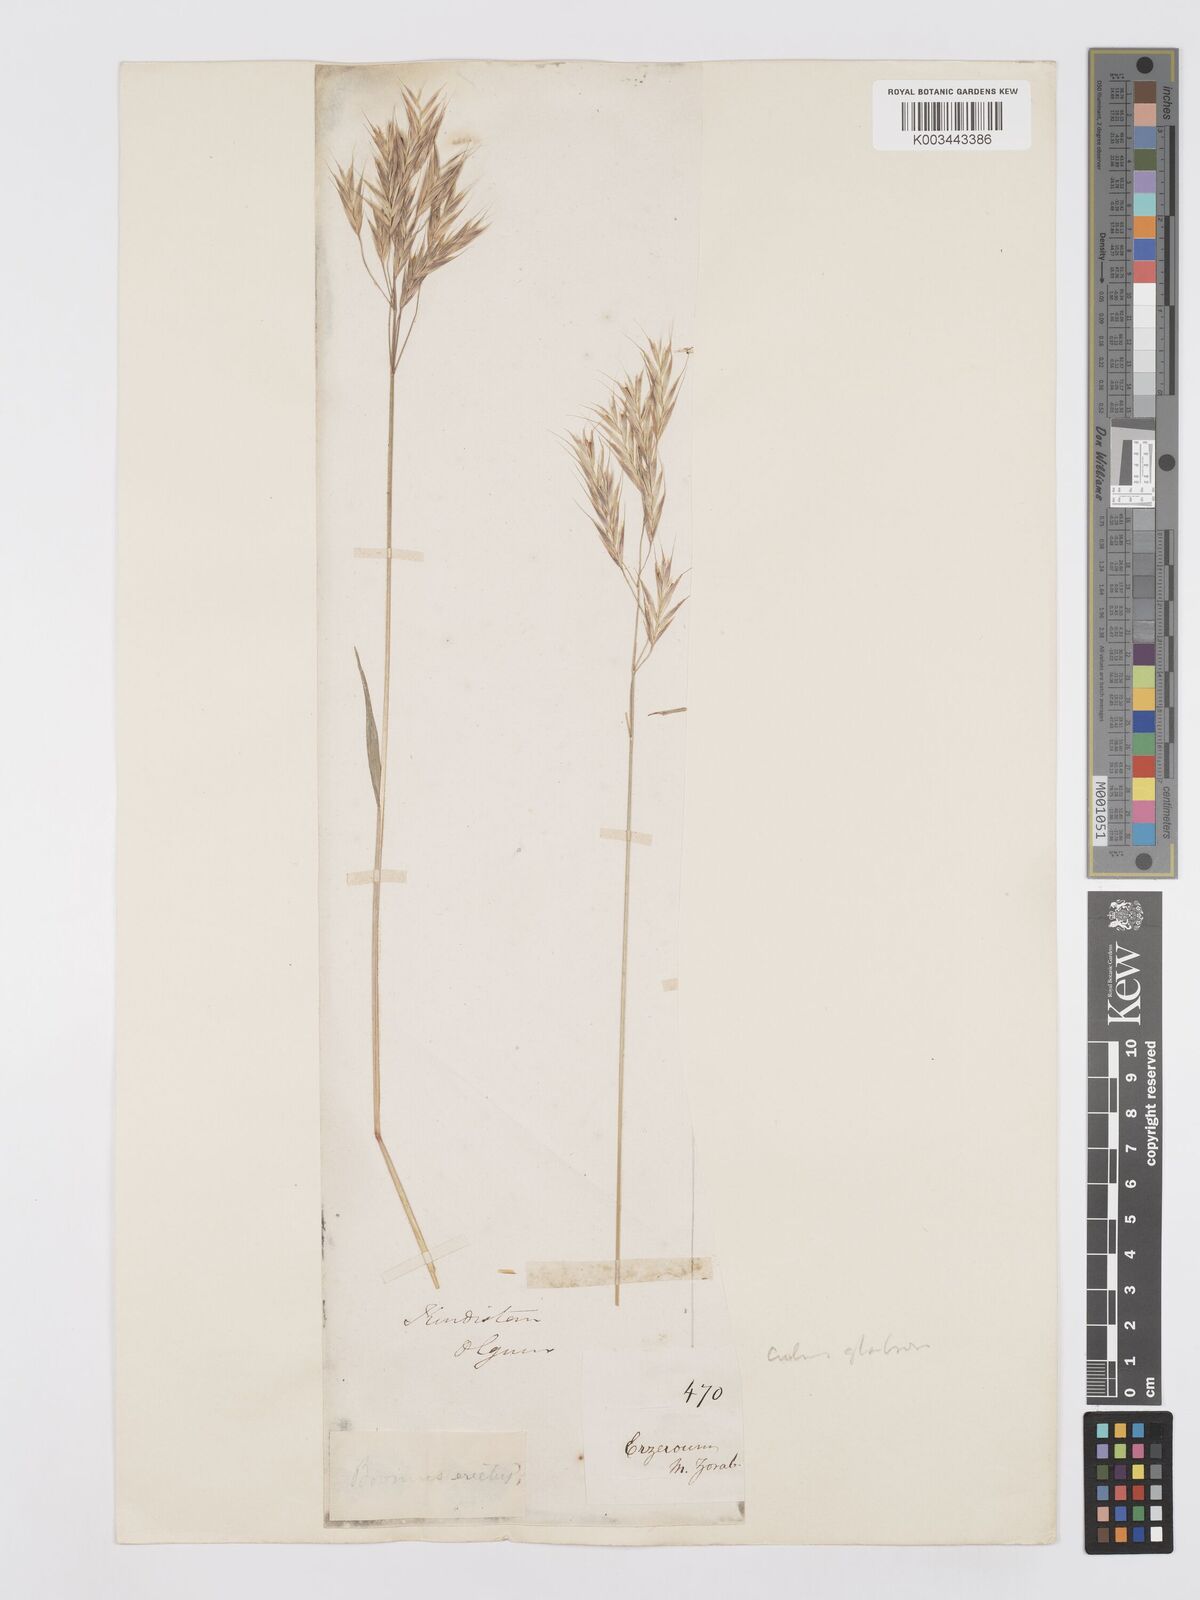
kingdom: Plantae
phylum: Tracheophyta
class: Liliopsida
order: Poales
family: Poaceae
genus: Bromus
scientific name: Bromus variegatus
